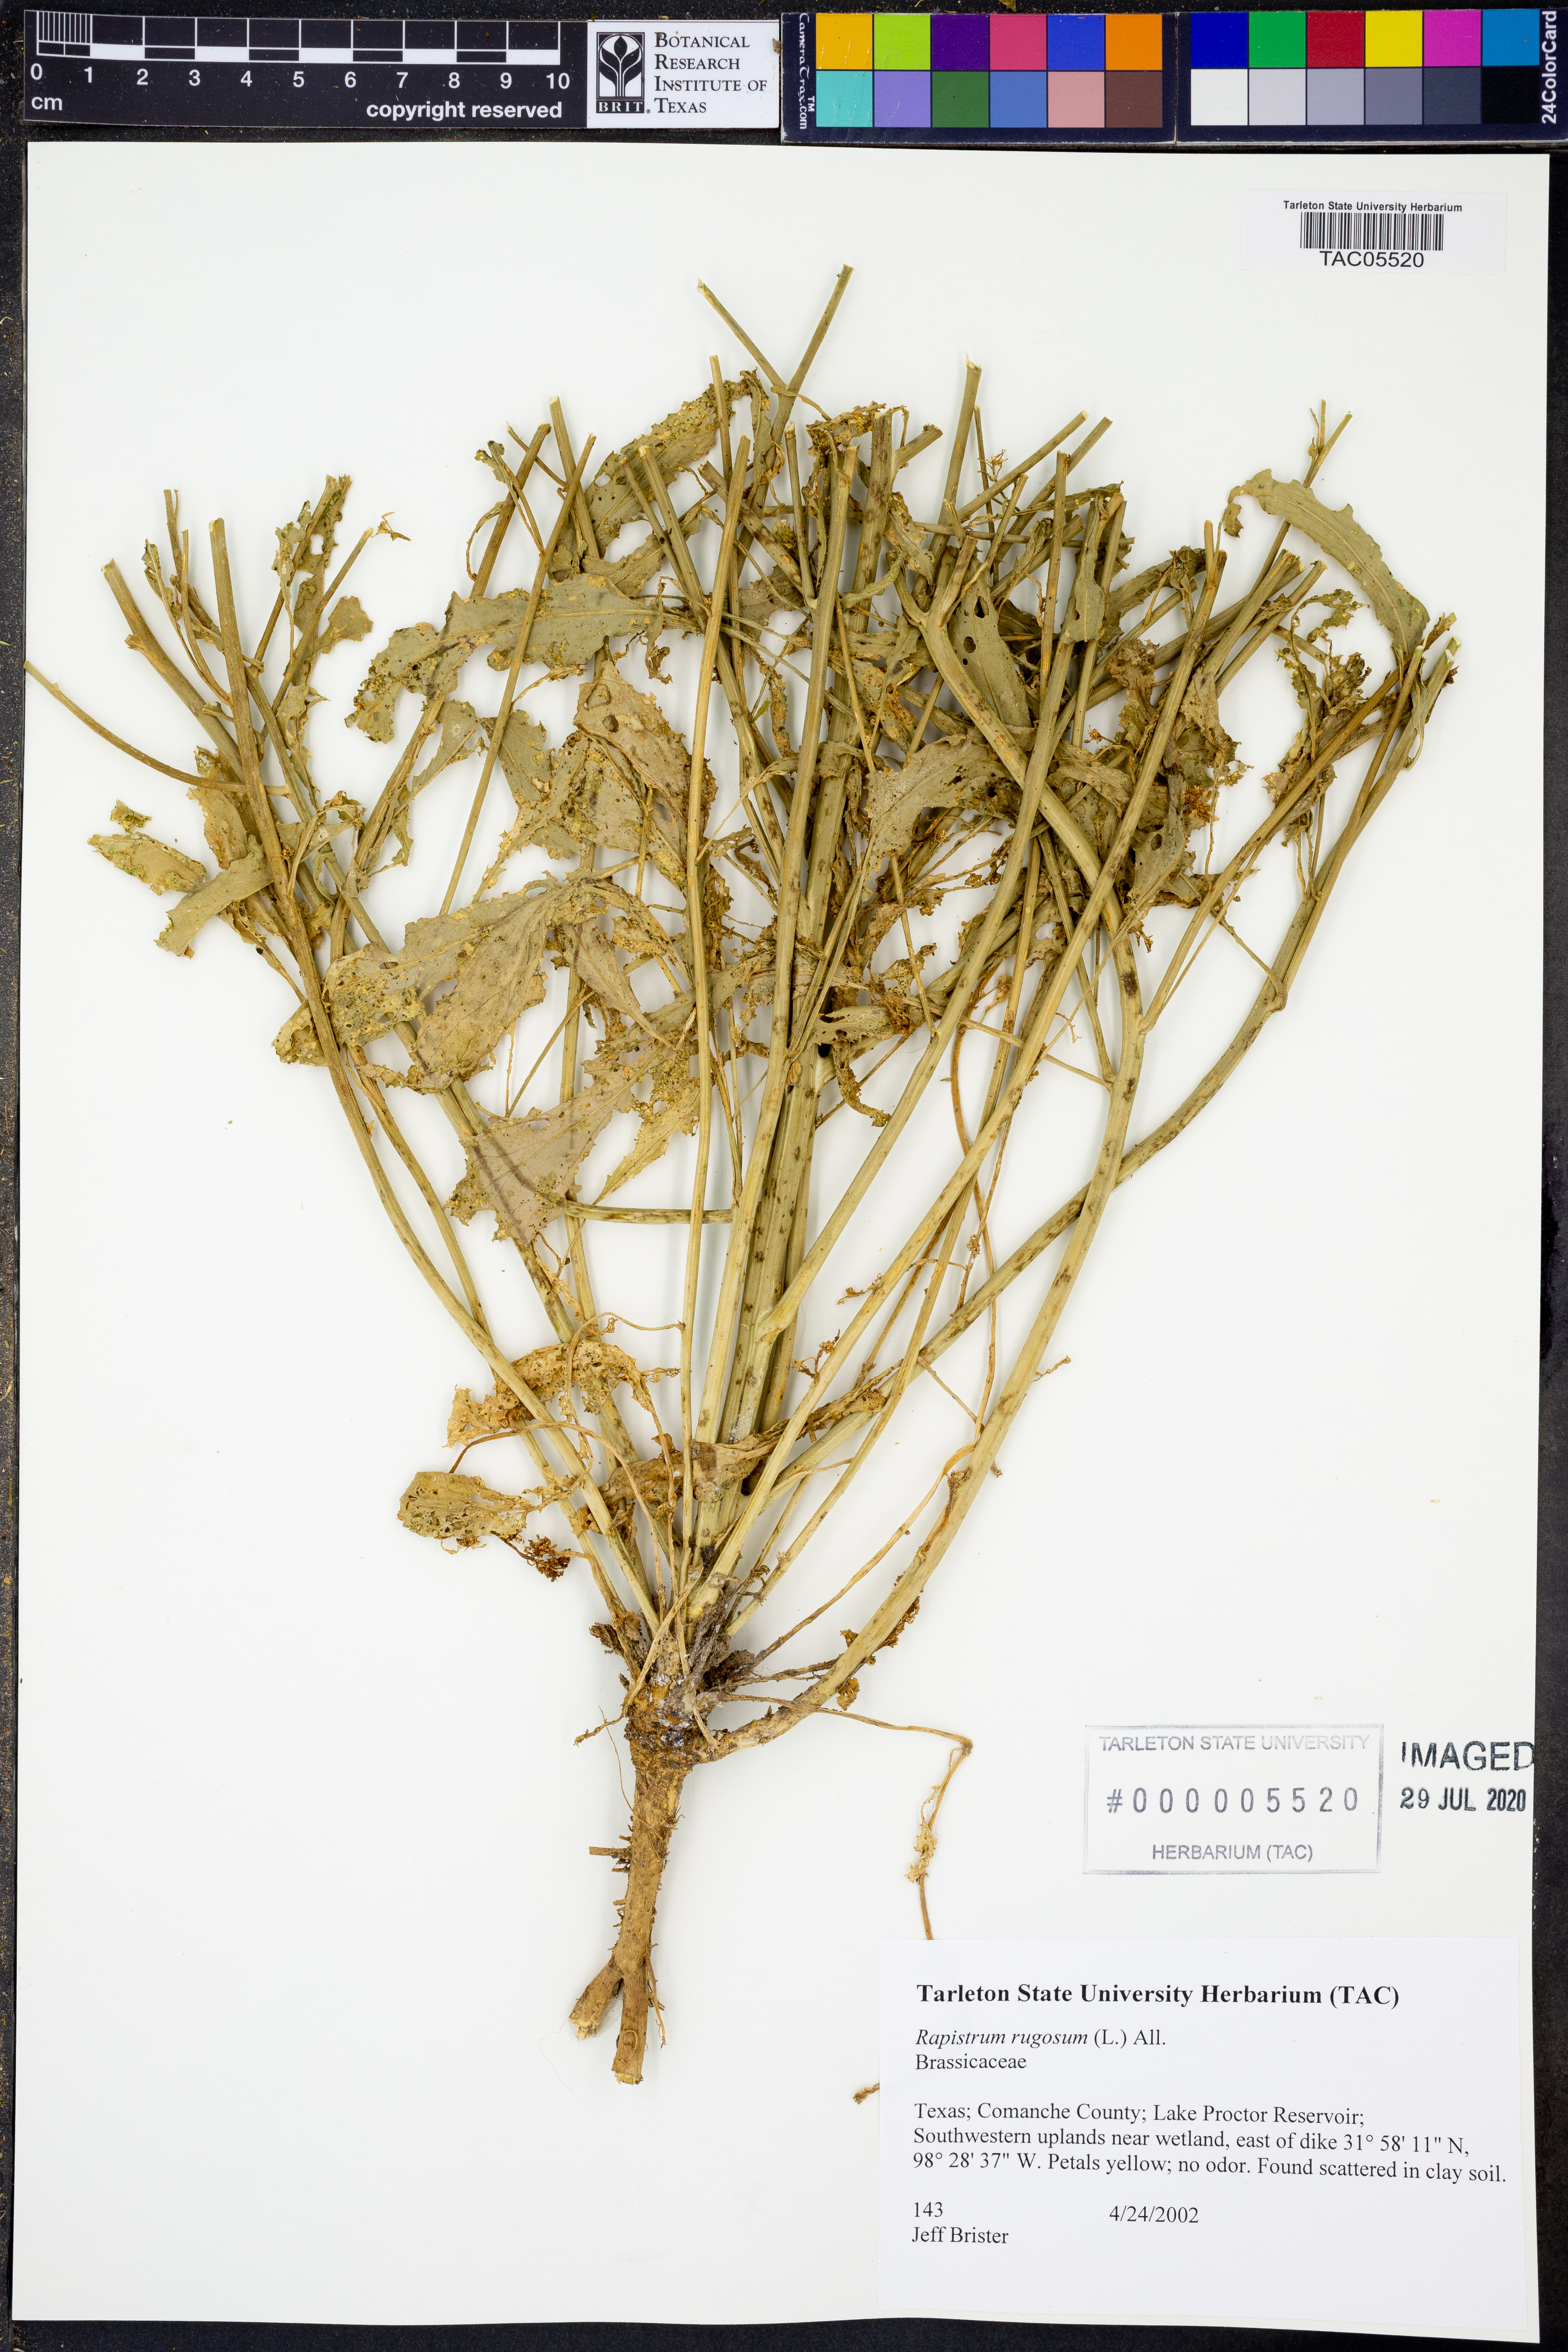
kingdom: Plantae
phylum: Tracheophyta
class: Magnoliopsida
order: Brassicales
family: Brassicaceae
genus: Rapistrum
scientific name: Rapistrum rugosum
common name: Annual bastardcabbage
